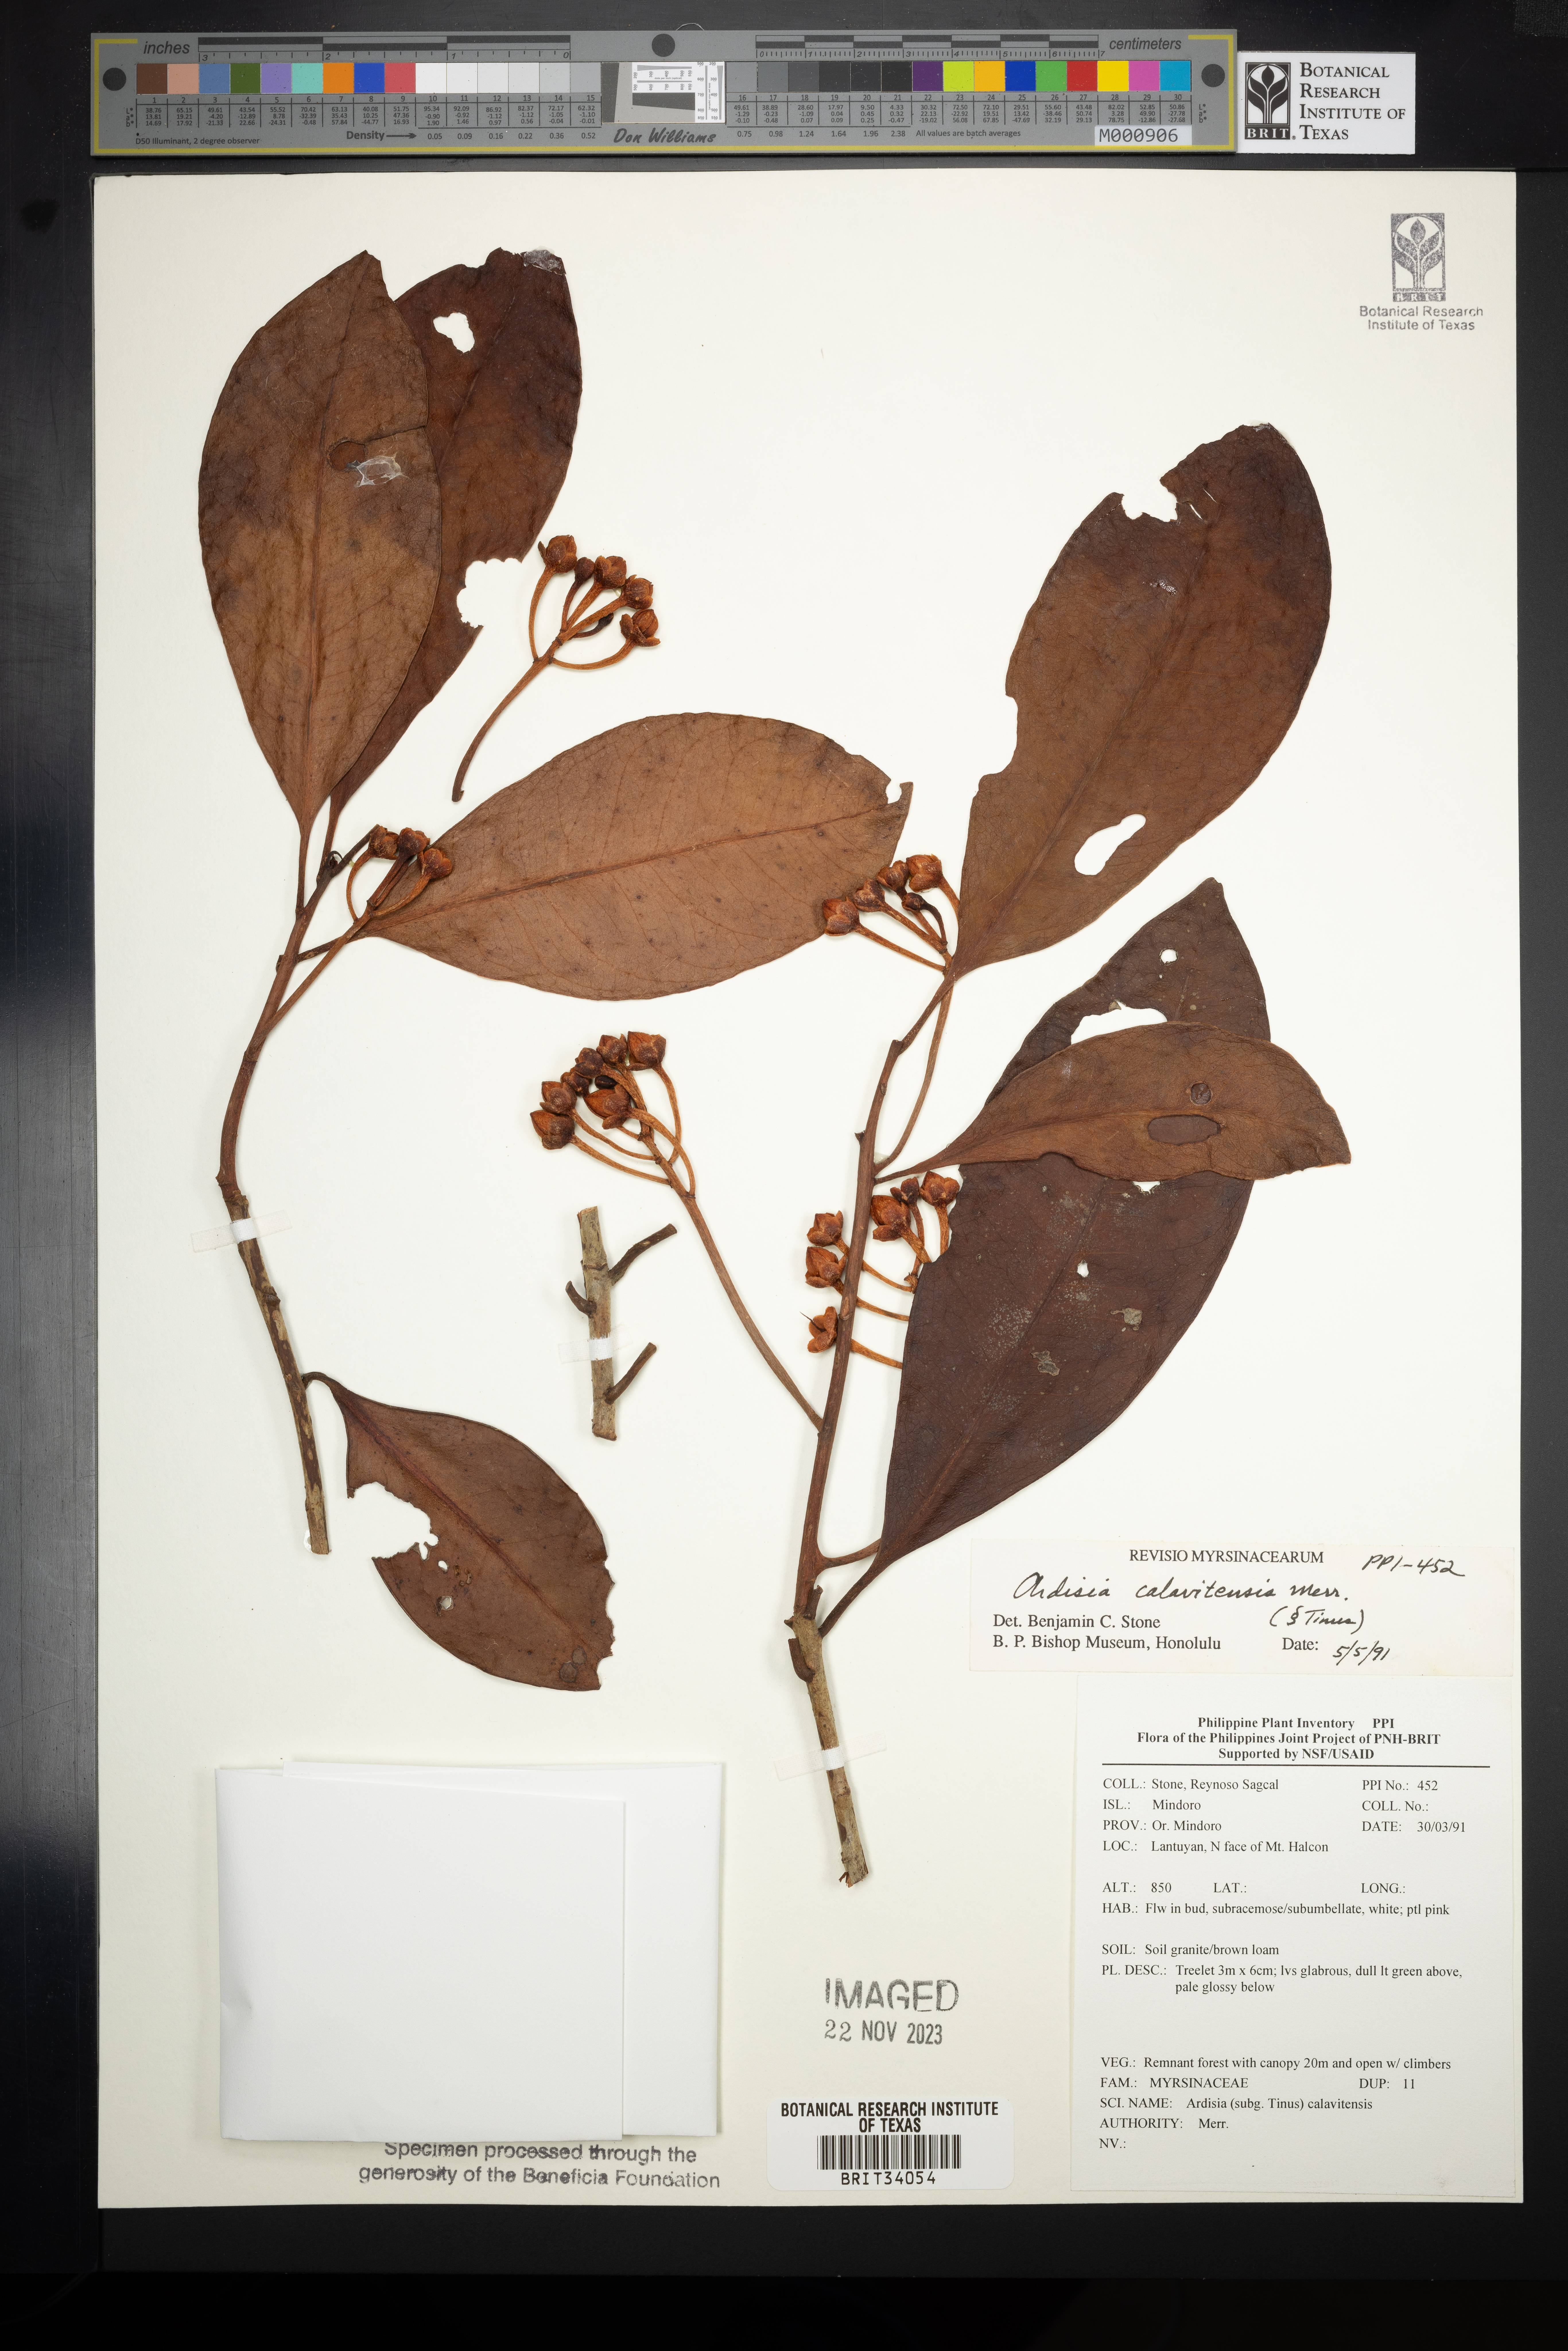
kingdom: Plantae
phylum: Tracheophyta
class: Magnoliopsida
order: Ericales
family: Primulaceae
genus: Ardisia
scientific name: Ardisia calavitensis
